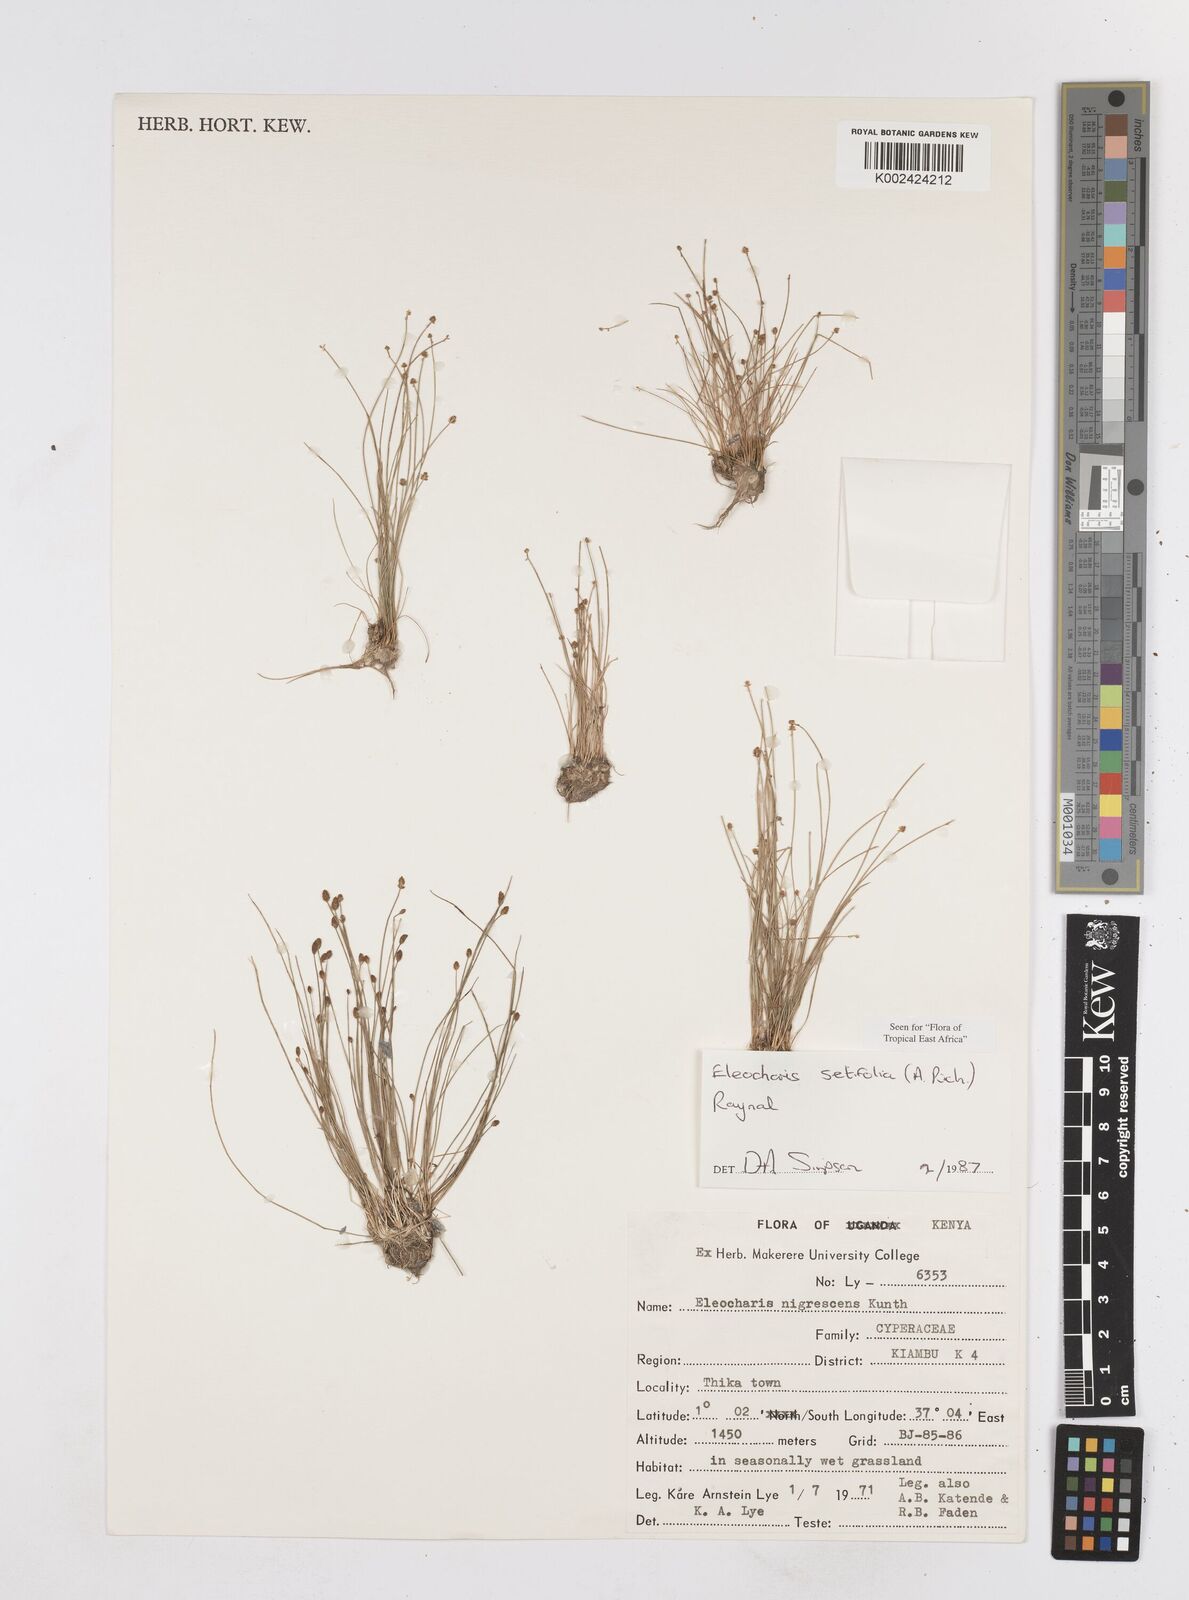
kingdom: Plantae
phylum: Tracheophyta
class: Liliopsida
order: Poales
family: Cyperaceae
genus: Eleocharis
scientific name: Eleocharis setifolia
